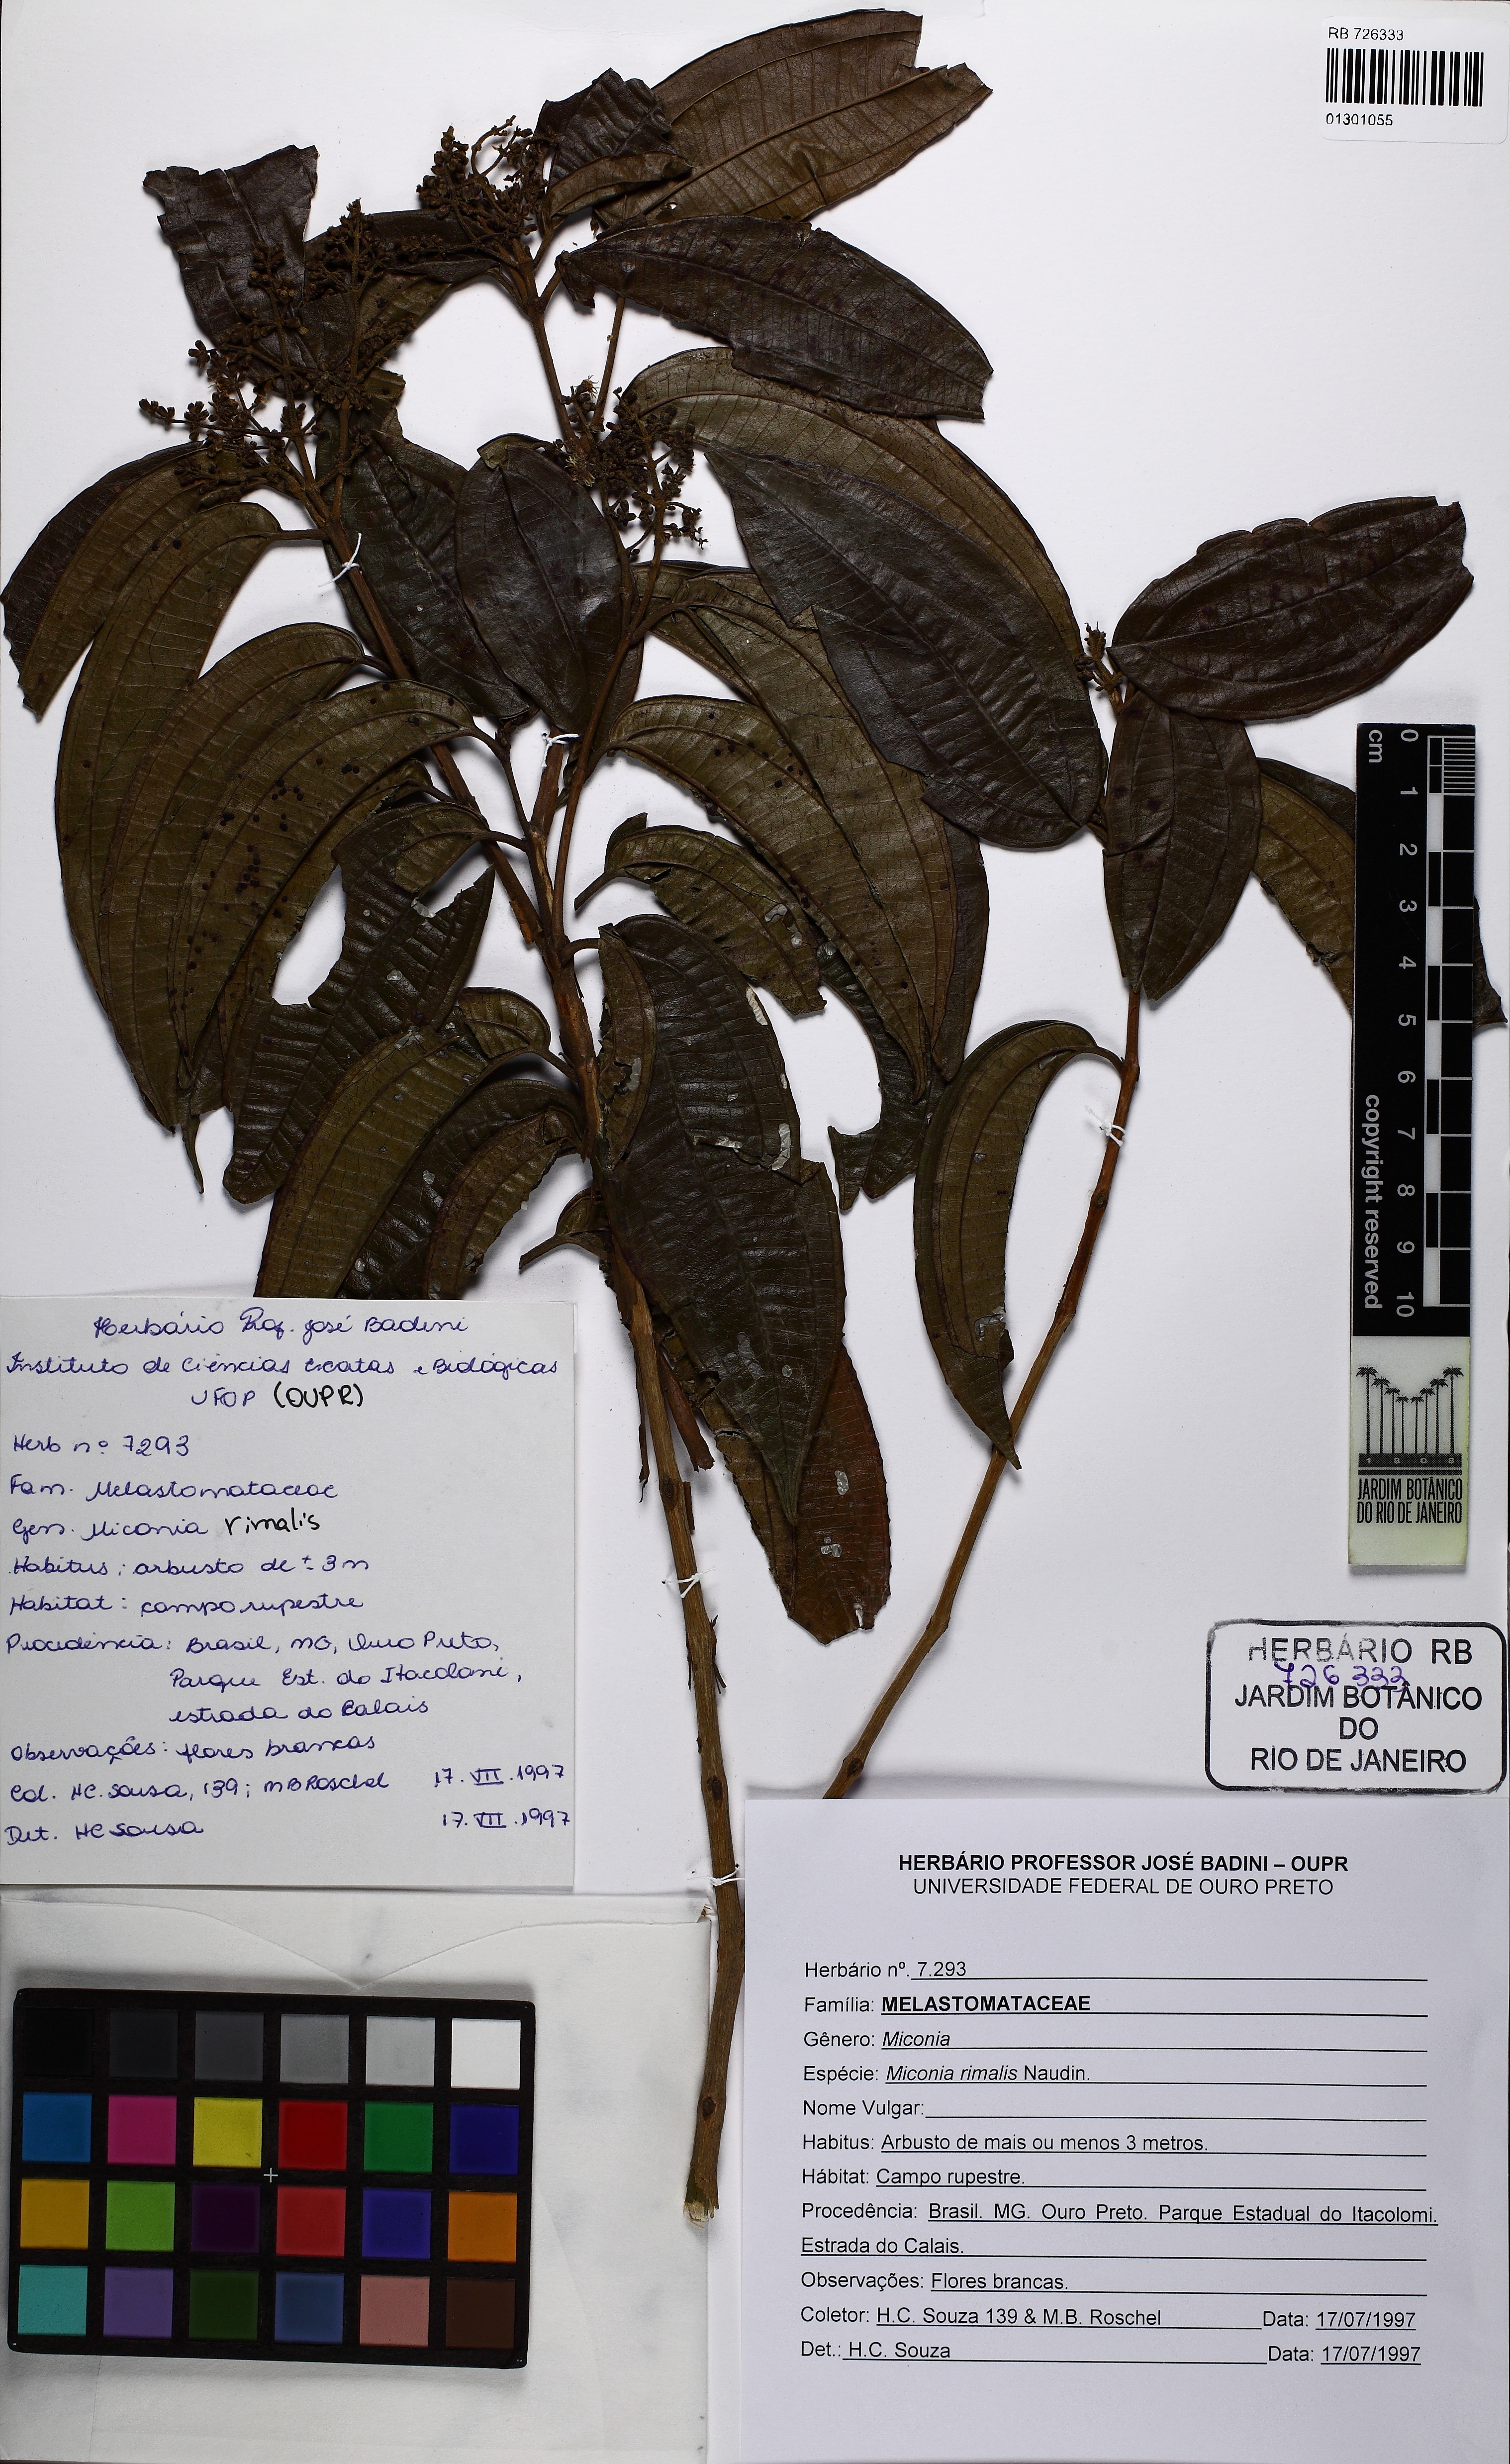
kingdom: Plantae
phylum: Tracheophyta
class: Magnoliopsida
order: Myrtales
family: Melastomataceae
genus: Miconia
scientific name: Miconia rimalis
